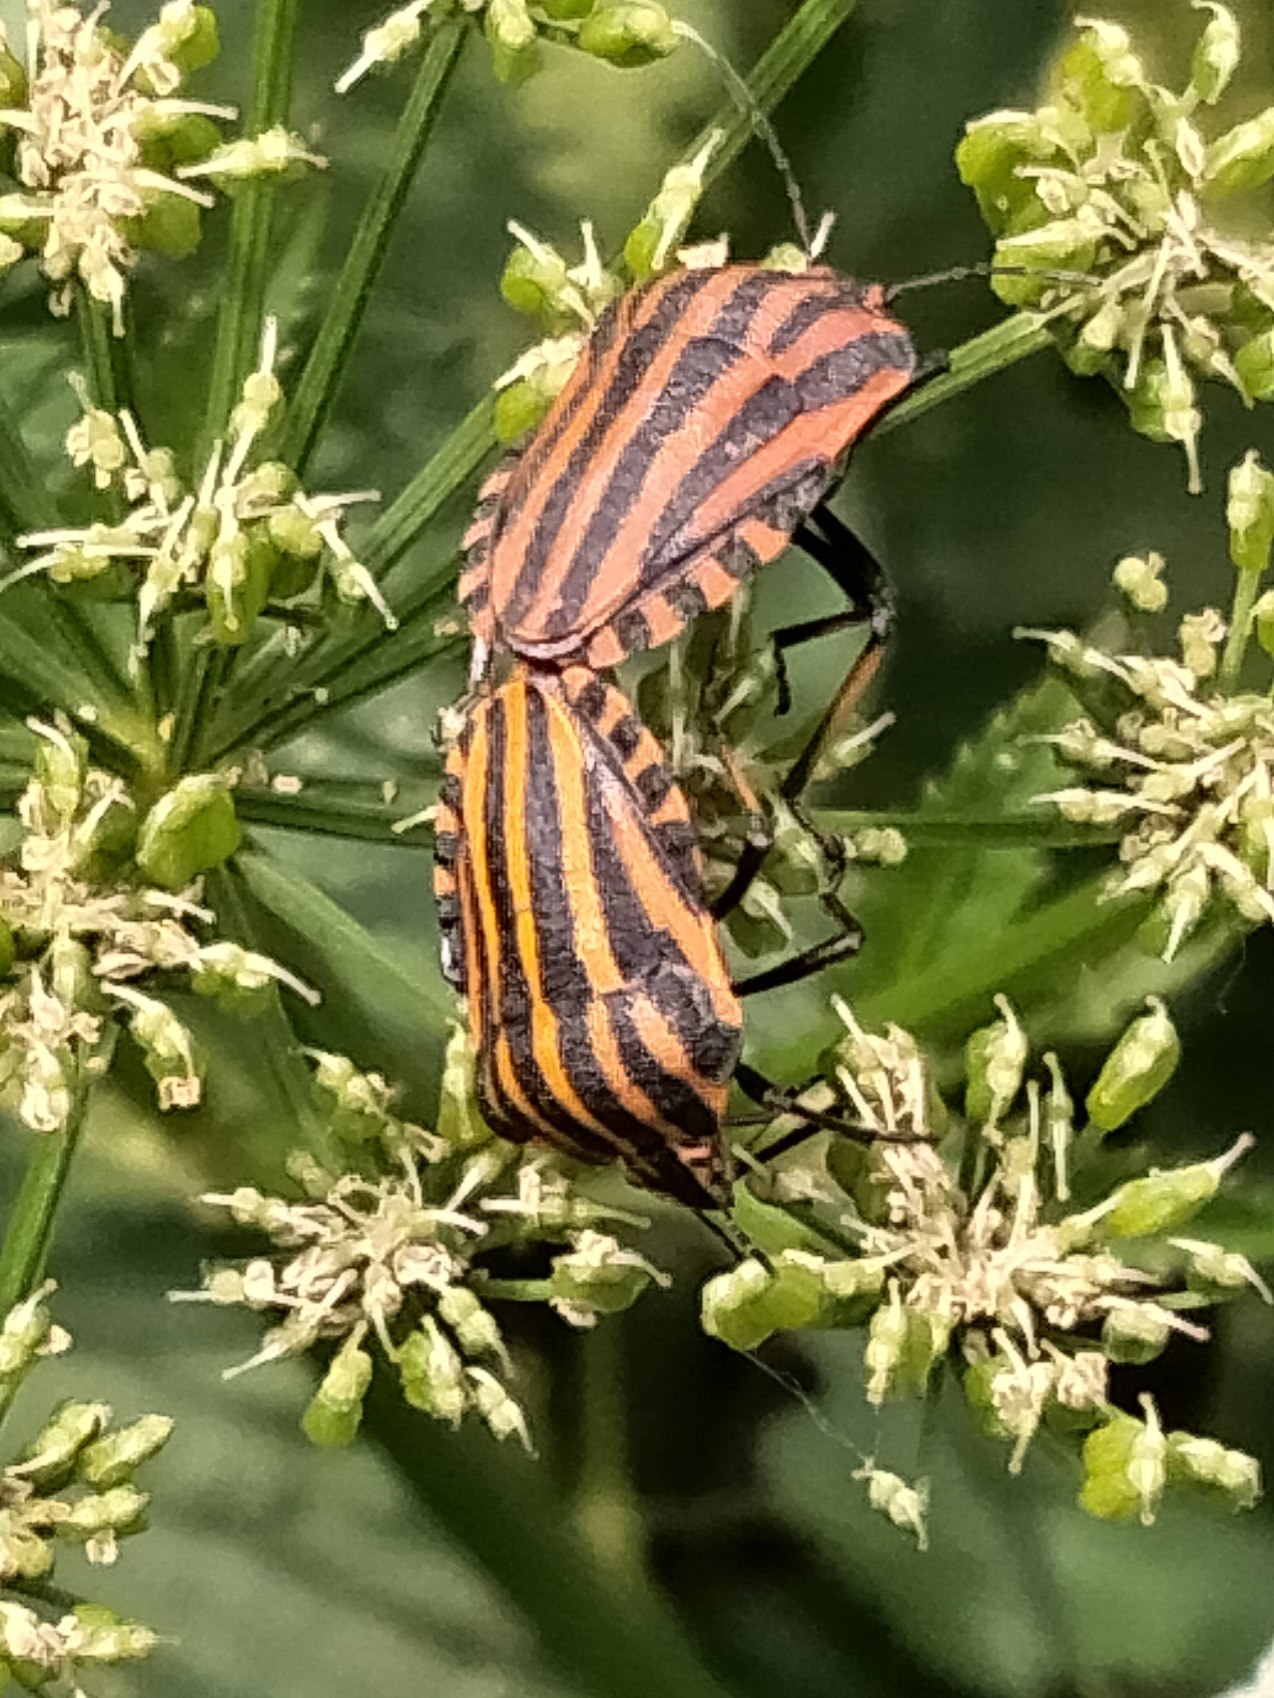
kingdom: Animalia
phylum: Arthropoda
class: Insecta
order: Hemiptera
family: Pentatomidae
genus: Graphosoma
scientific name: Graphosoma italicum
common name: Stribetæge
